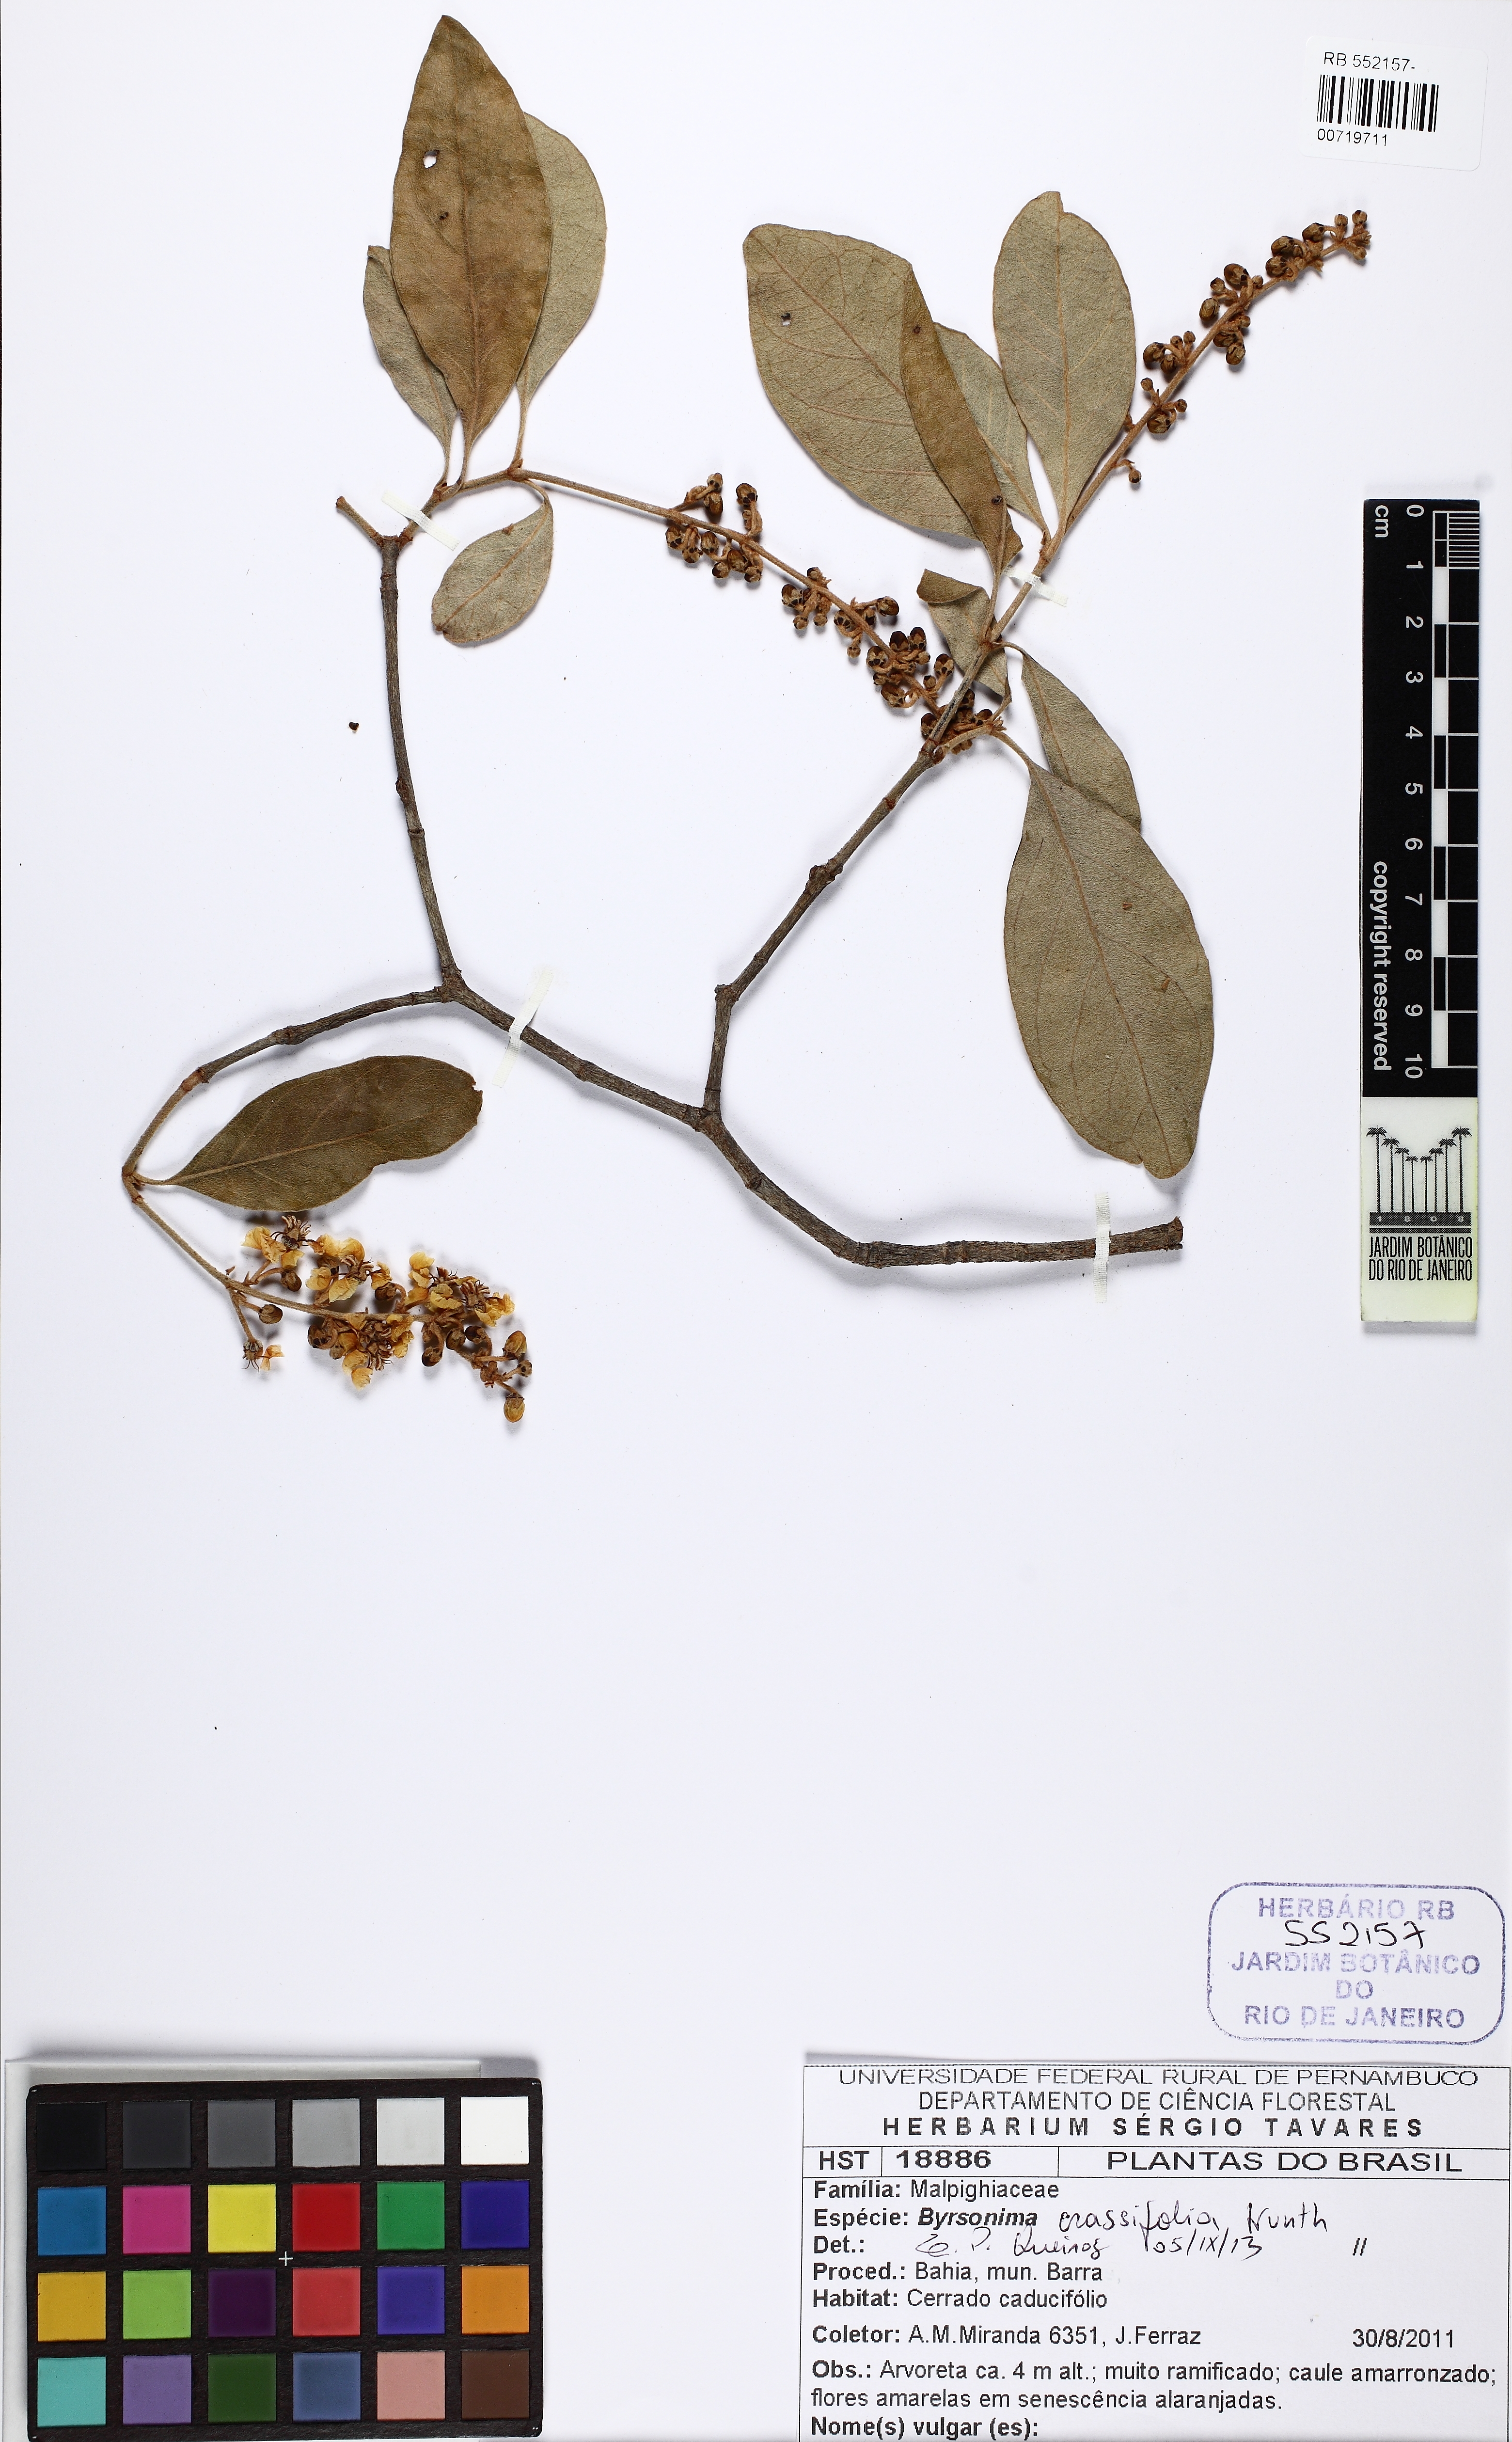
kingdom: Plantae
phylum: Tracheophyta
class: Magnoliopsida
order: Malpighiales
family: Malpighiaceae
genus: Byrsonima
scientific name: Byrsonima crassifolia
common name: Golden spoon
